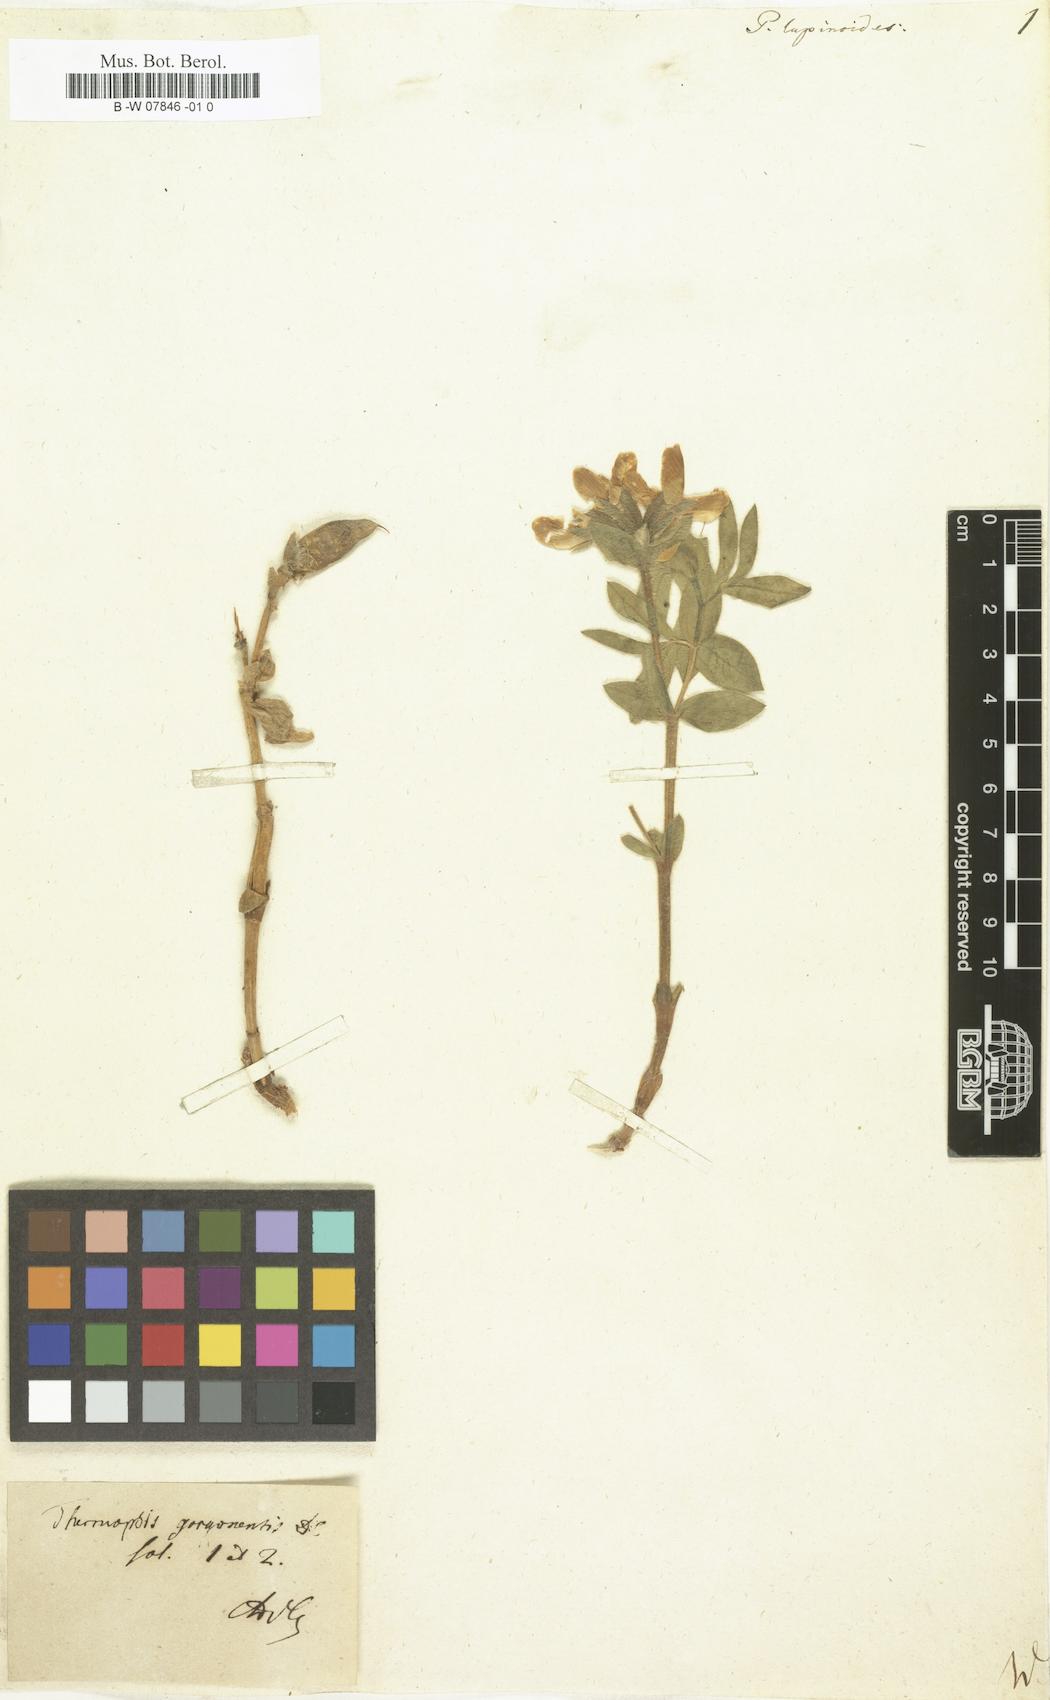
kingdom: Plantae
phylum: Tracheophyta
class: Magnoliopsida
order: Fabales
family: Fabaceae
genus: Thermopsis
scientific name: Thermopsis lanceolata
